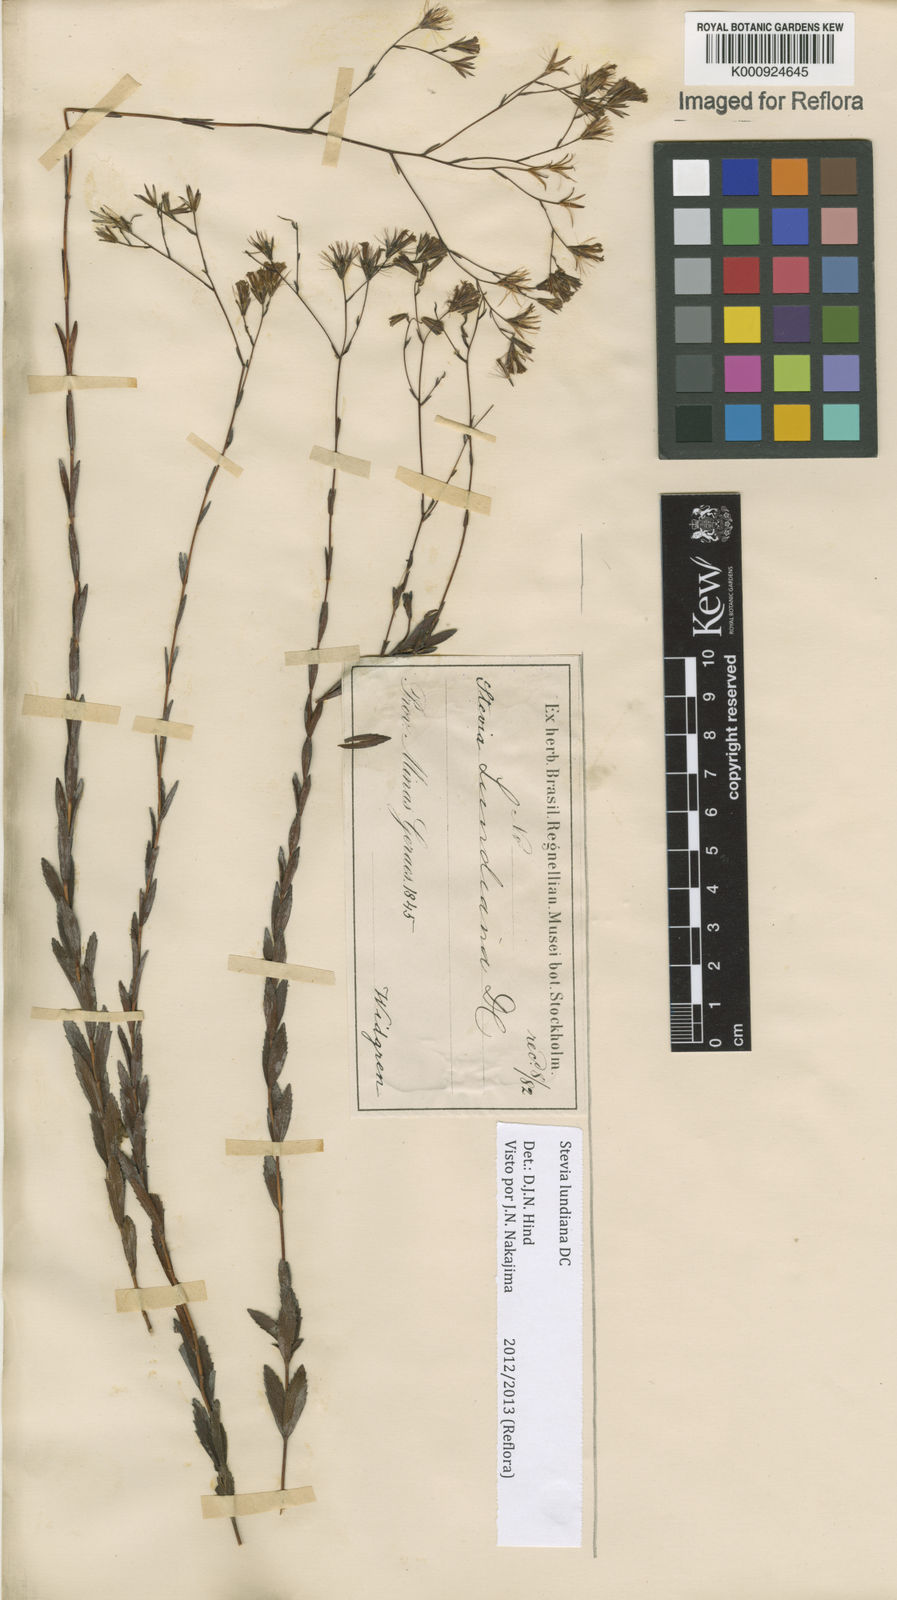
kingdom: Plantae
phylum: Tracheophyta
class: Magnoliopsida
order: Asterales
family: Asteraceae
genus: Stevia
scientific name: Stevia lundiana
